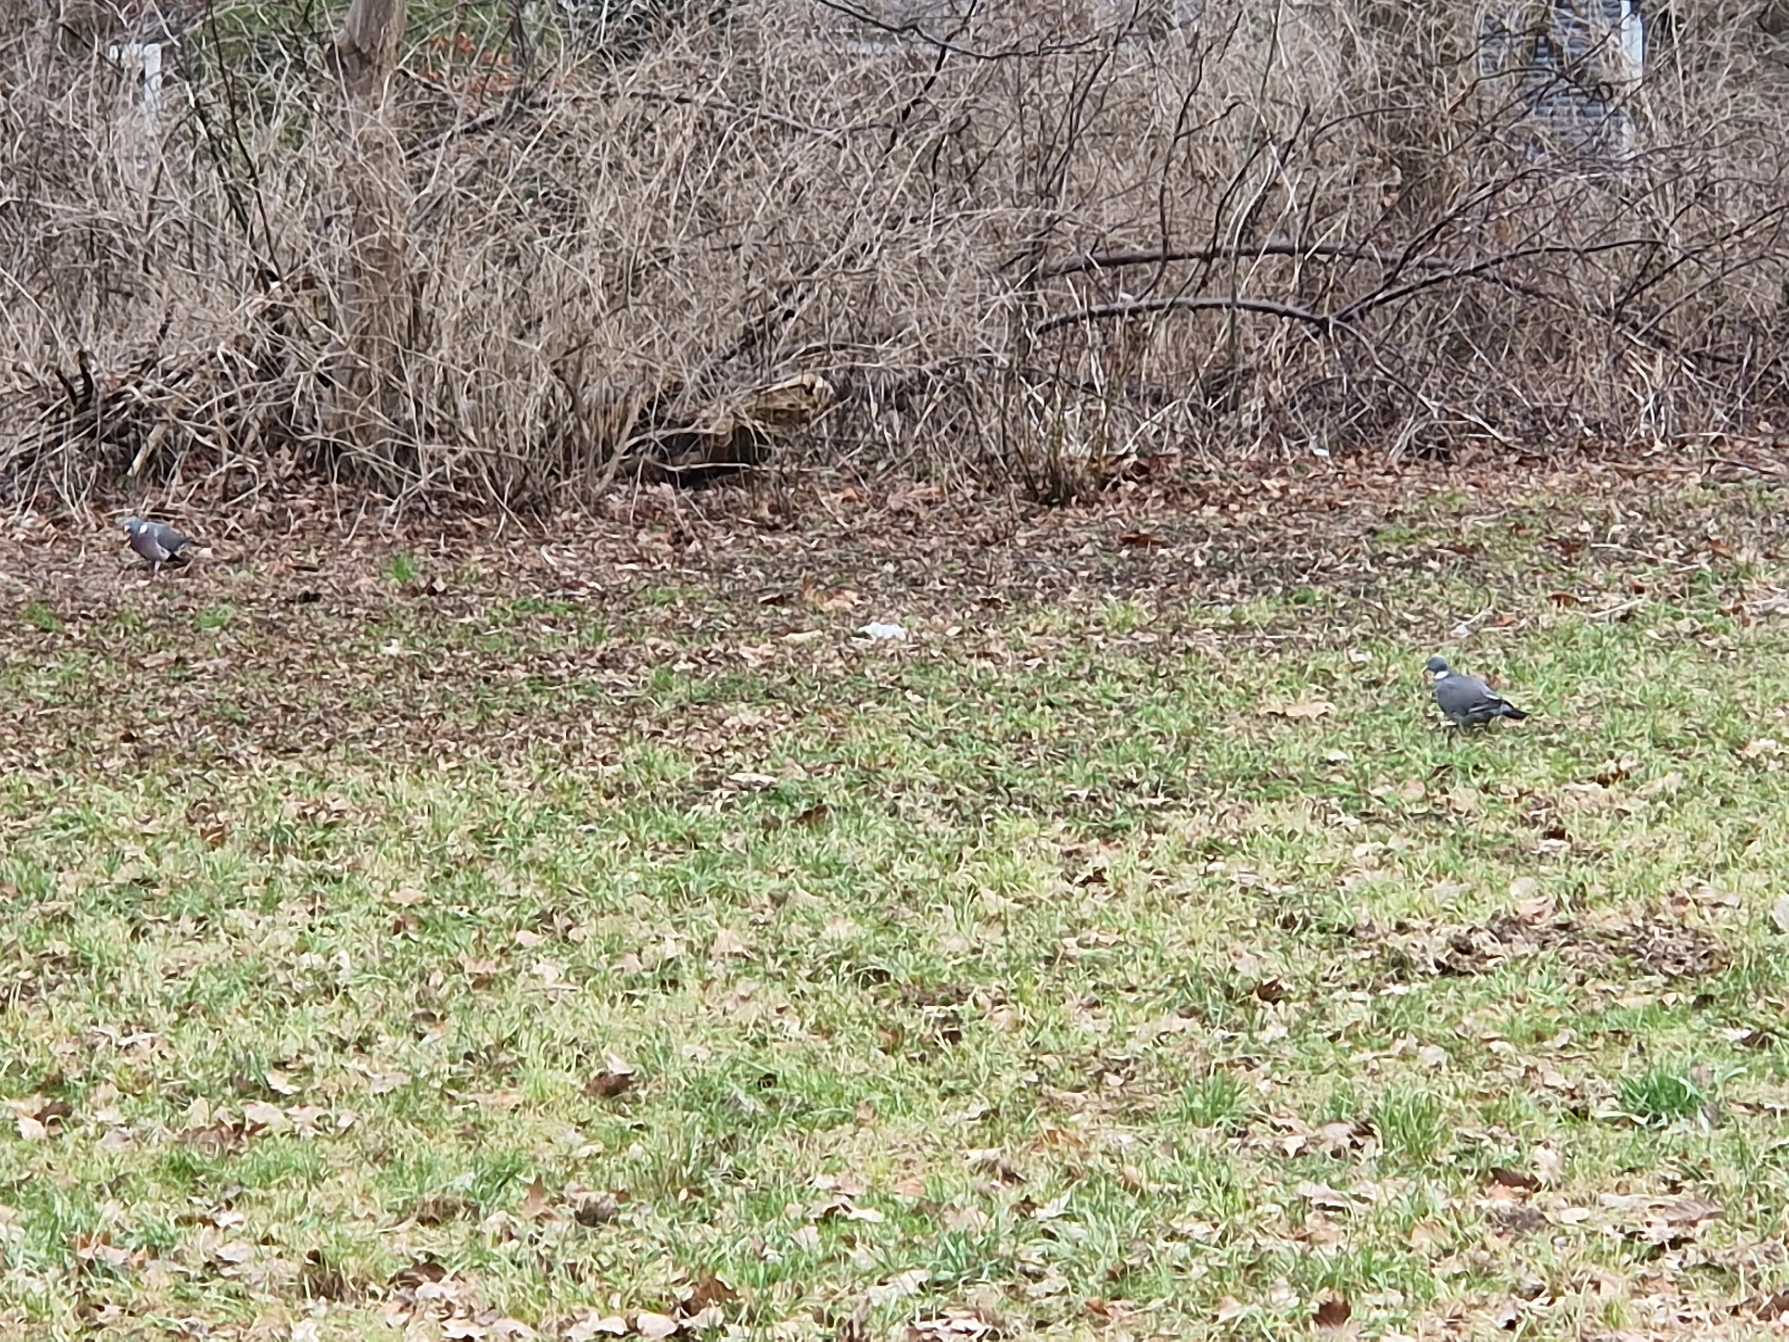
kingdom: Animalia
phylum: Chordata
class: Aves
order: Columbiformes
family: Columbidae
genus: Columba
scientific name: Columba palumbus
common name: Ringdue
